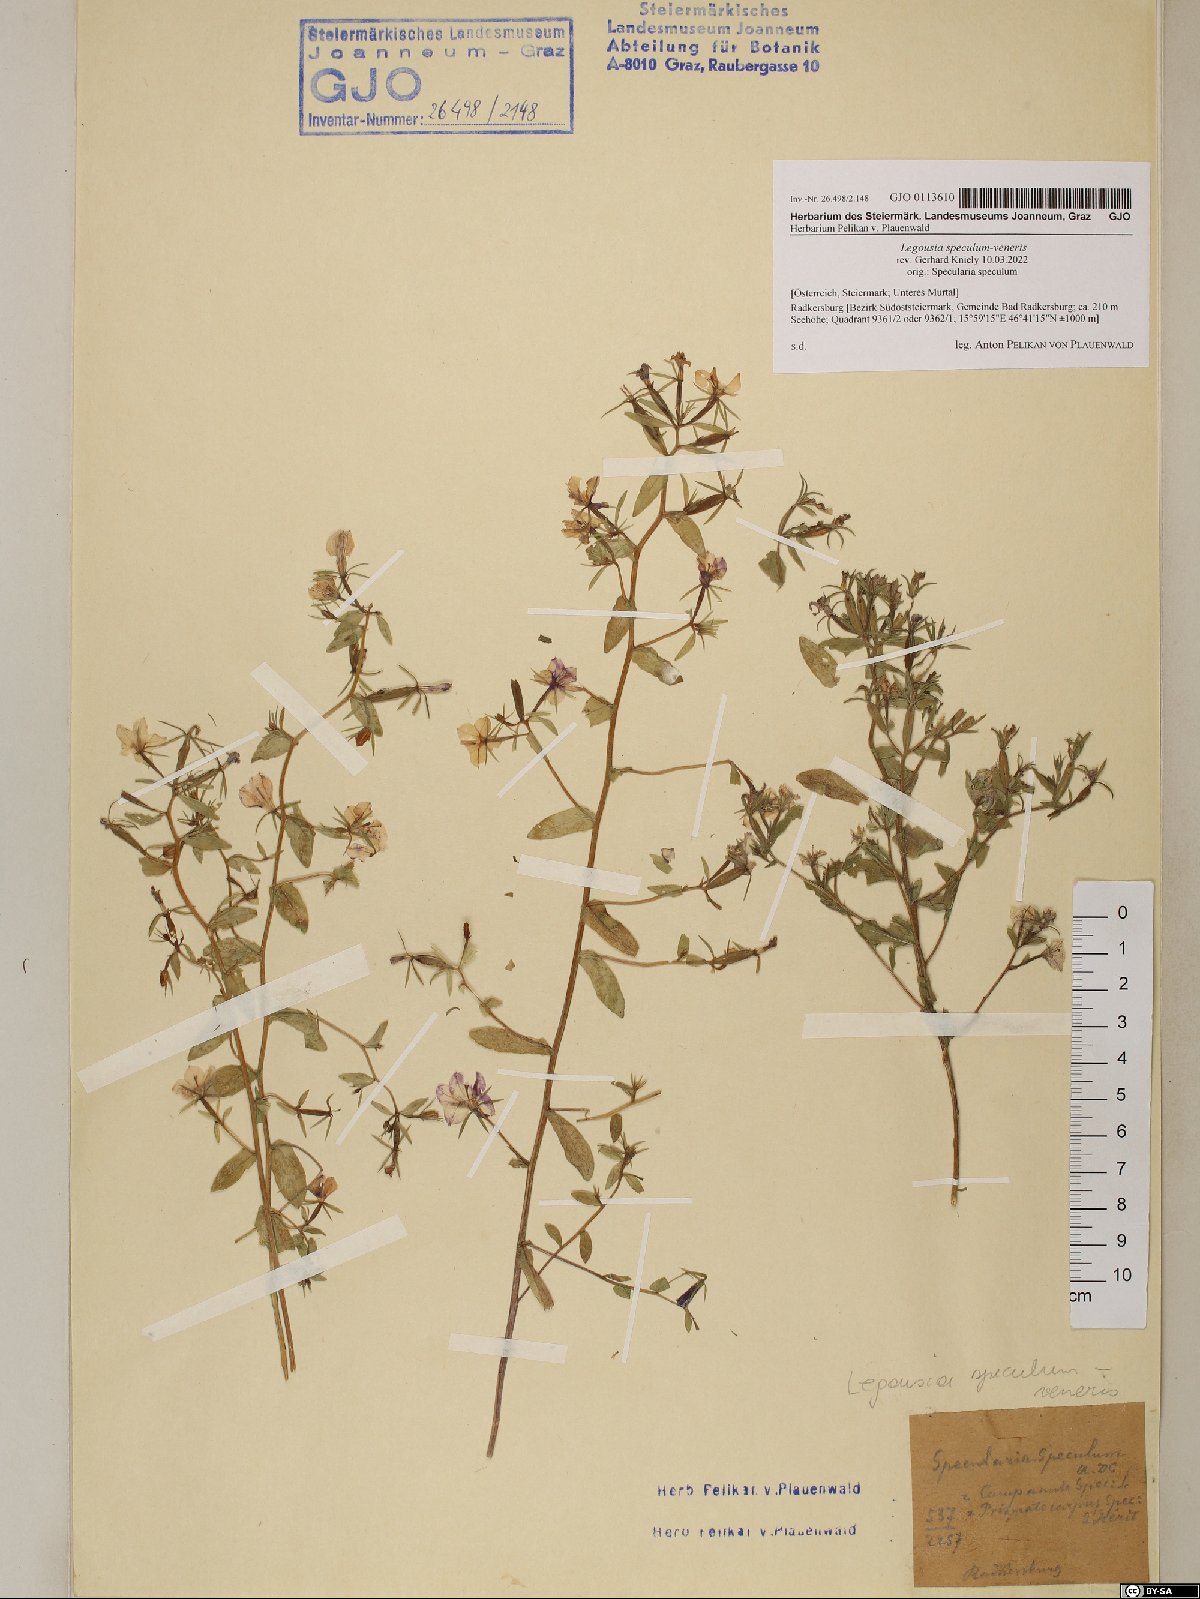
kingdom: Plantae
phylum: Tracheophyta
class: Magnoliopsida
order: Asterales
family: Campanulaceae
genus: Legousia
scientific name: Legousia speculum-veneris
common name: Large venus's-looking-glass
